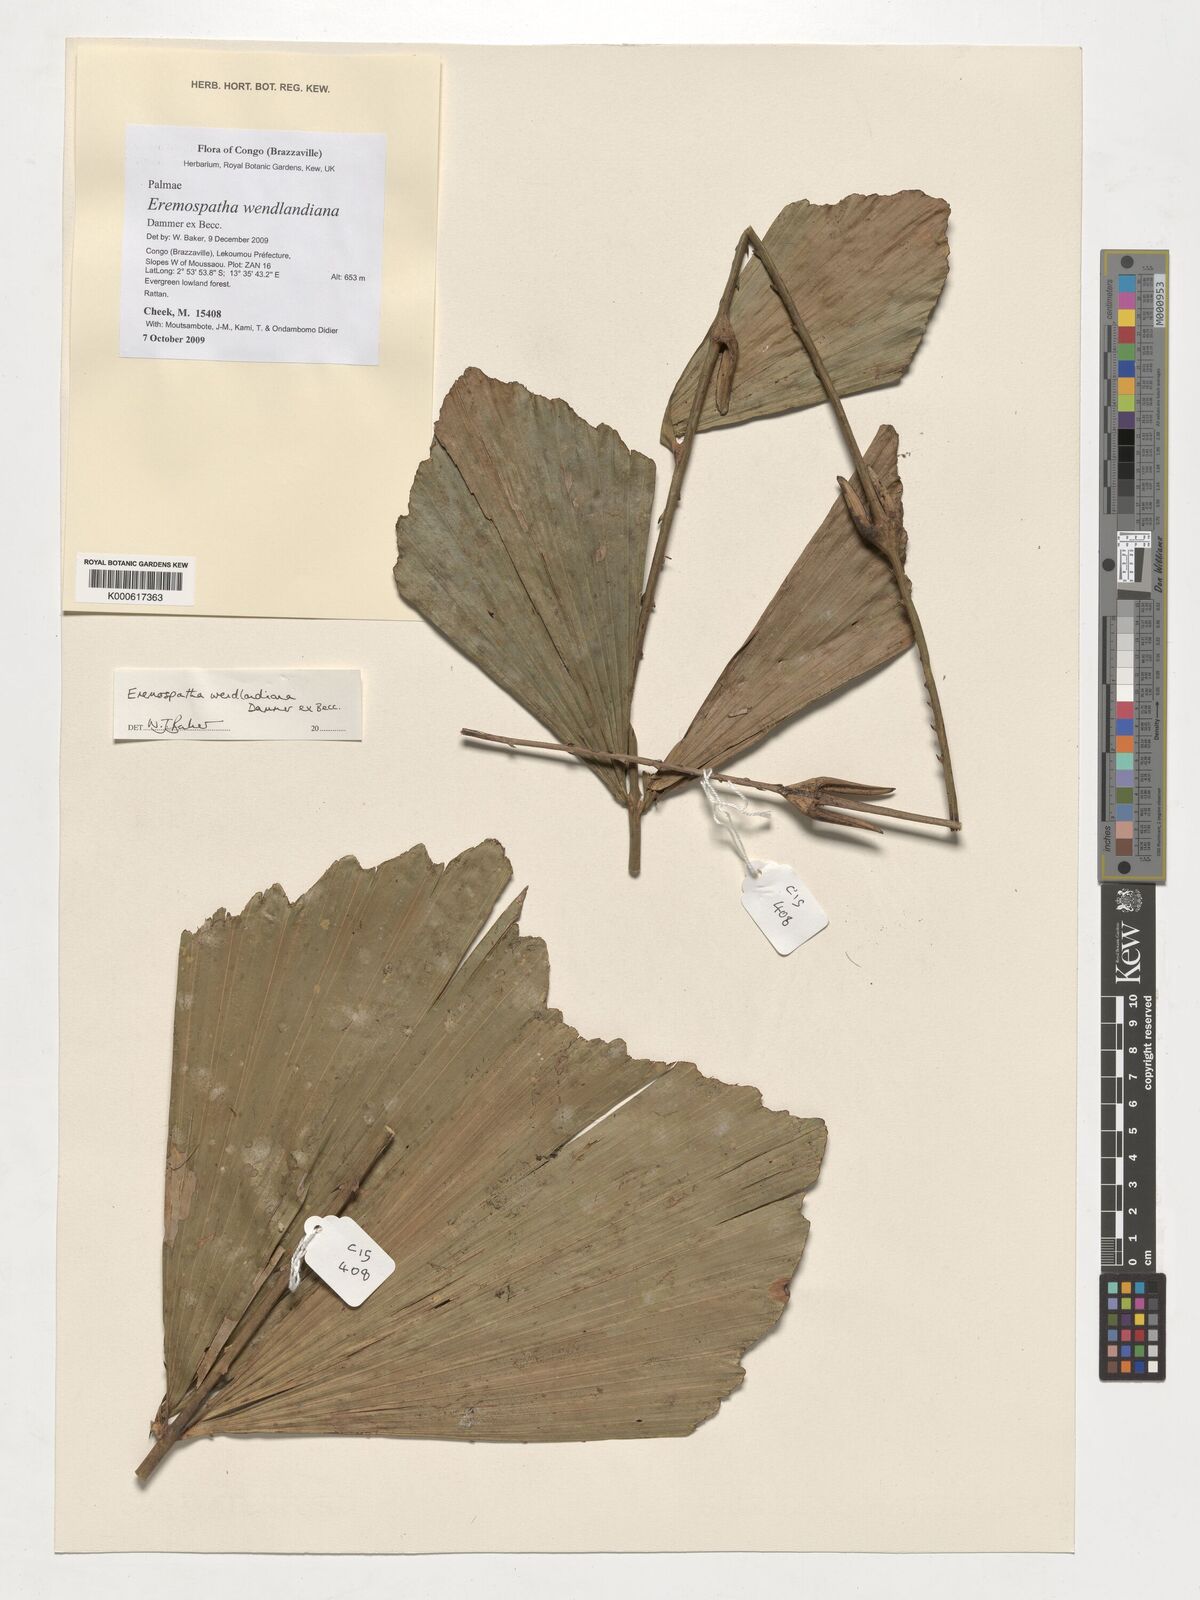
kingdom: Plantae
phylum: Tracheophyta
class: Liliopsida
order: Arecales
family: Arecaceae
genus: Eremospatha
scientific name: Eremospatha wendlandiana
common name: Rattan
